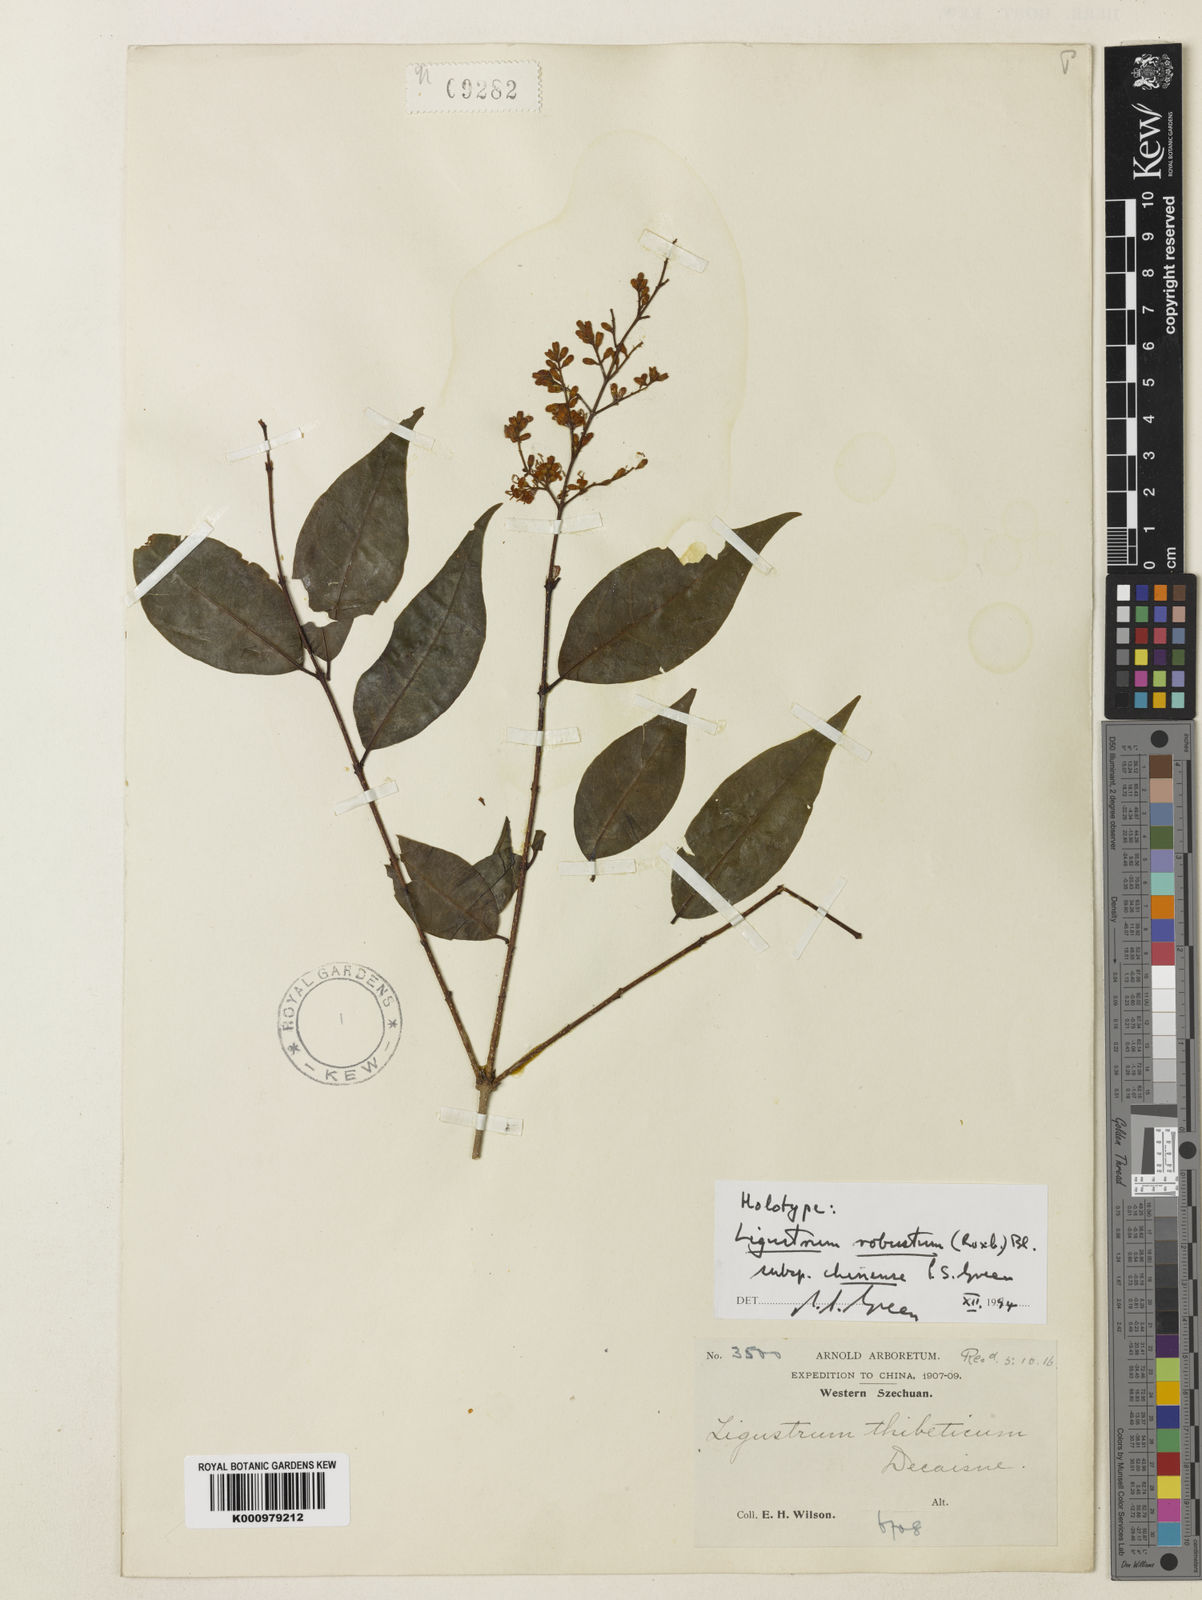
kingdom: Plantae
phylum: Tracheophyta
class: Magnoliopsida
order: Lamiales
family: Oleaceae
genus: Ligustrum
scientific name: Ligustrum expansum
